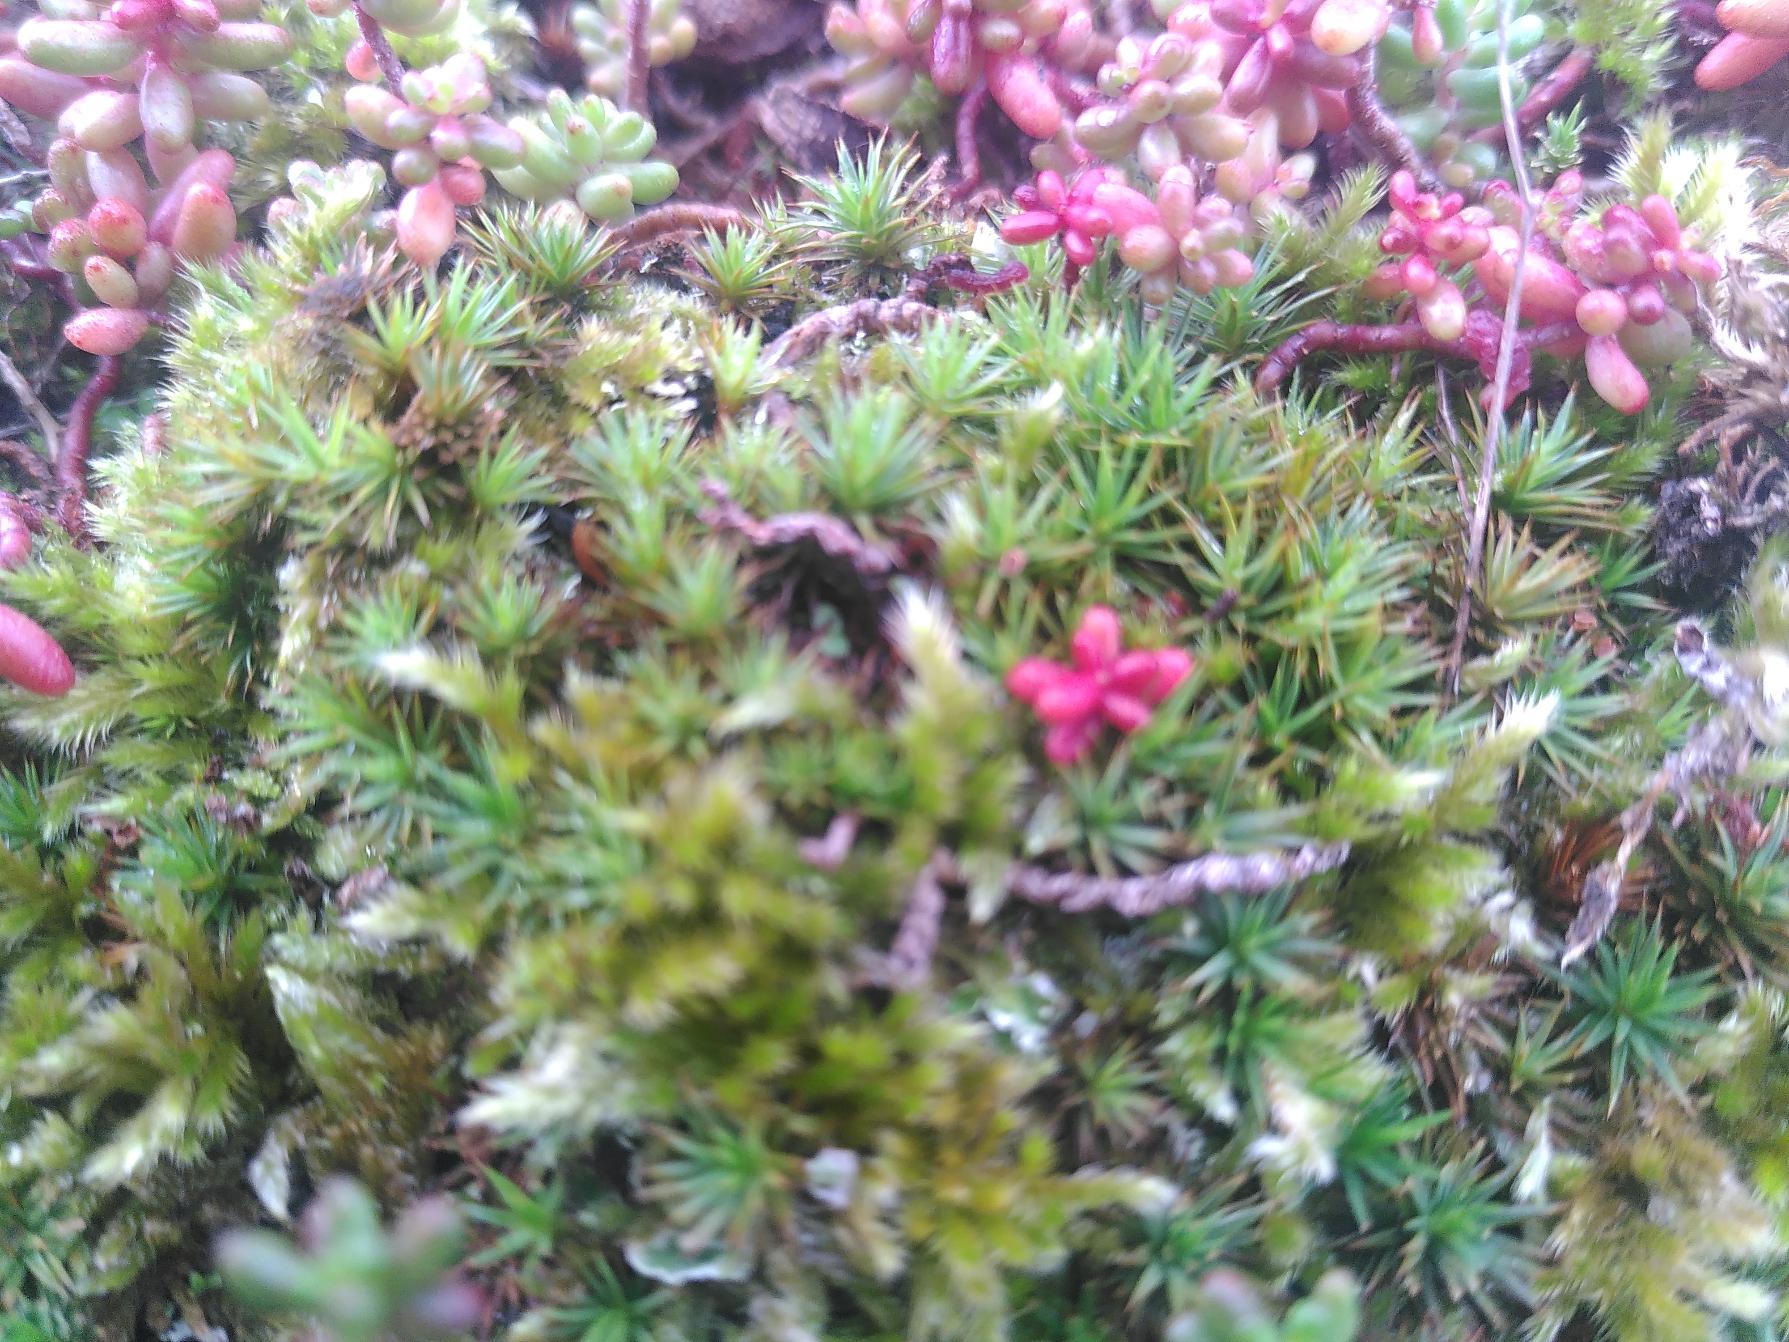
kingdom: Plantae
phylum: Bryophyta
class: Polytrichopsida
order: Polytrichales
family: Polytrichaceae
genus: Polytrichum
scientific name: Polytrichum juniperinum
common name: Ene-jomfruhår
